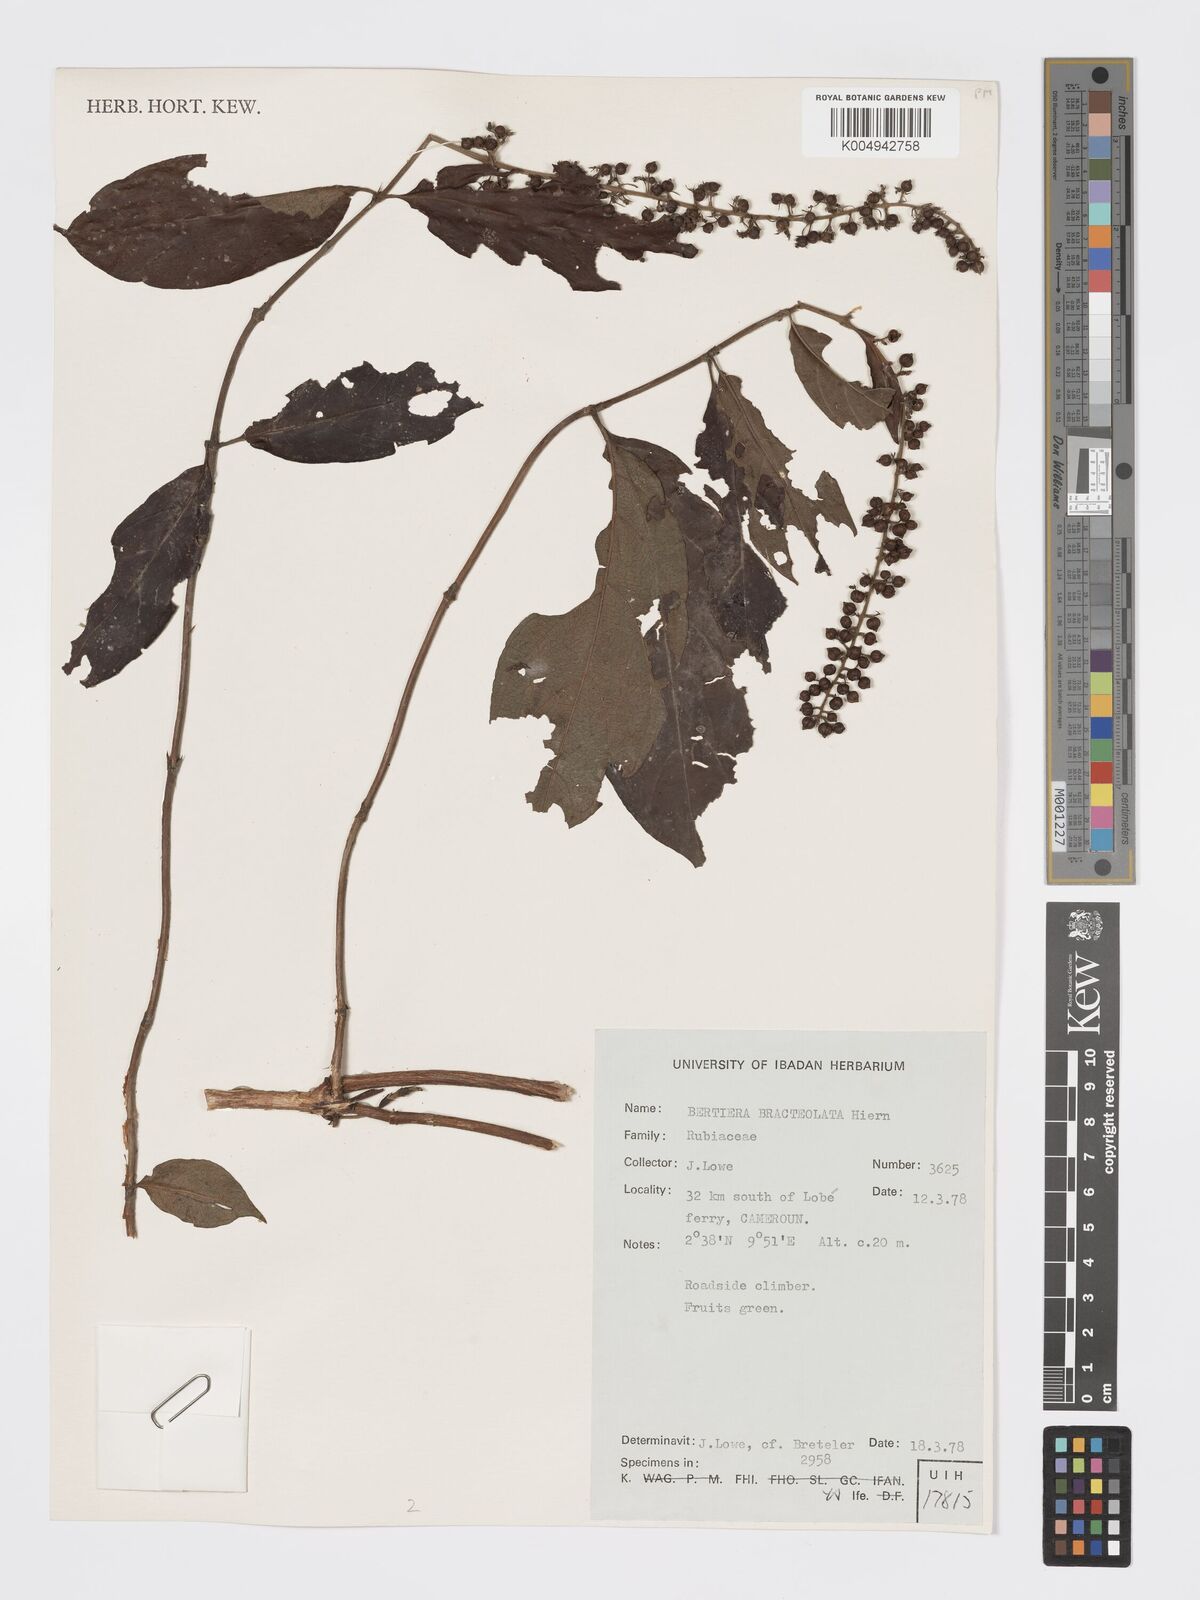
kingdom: Plantae
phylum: Tracheophyta
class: Magnoliopsida
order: Gentianales
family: Rubiaceae
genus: Bertiera
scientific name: Bertiera bracteolata
